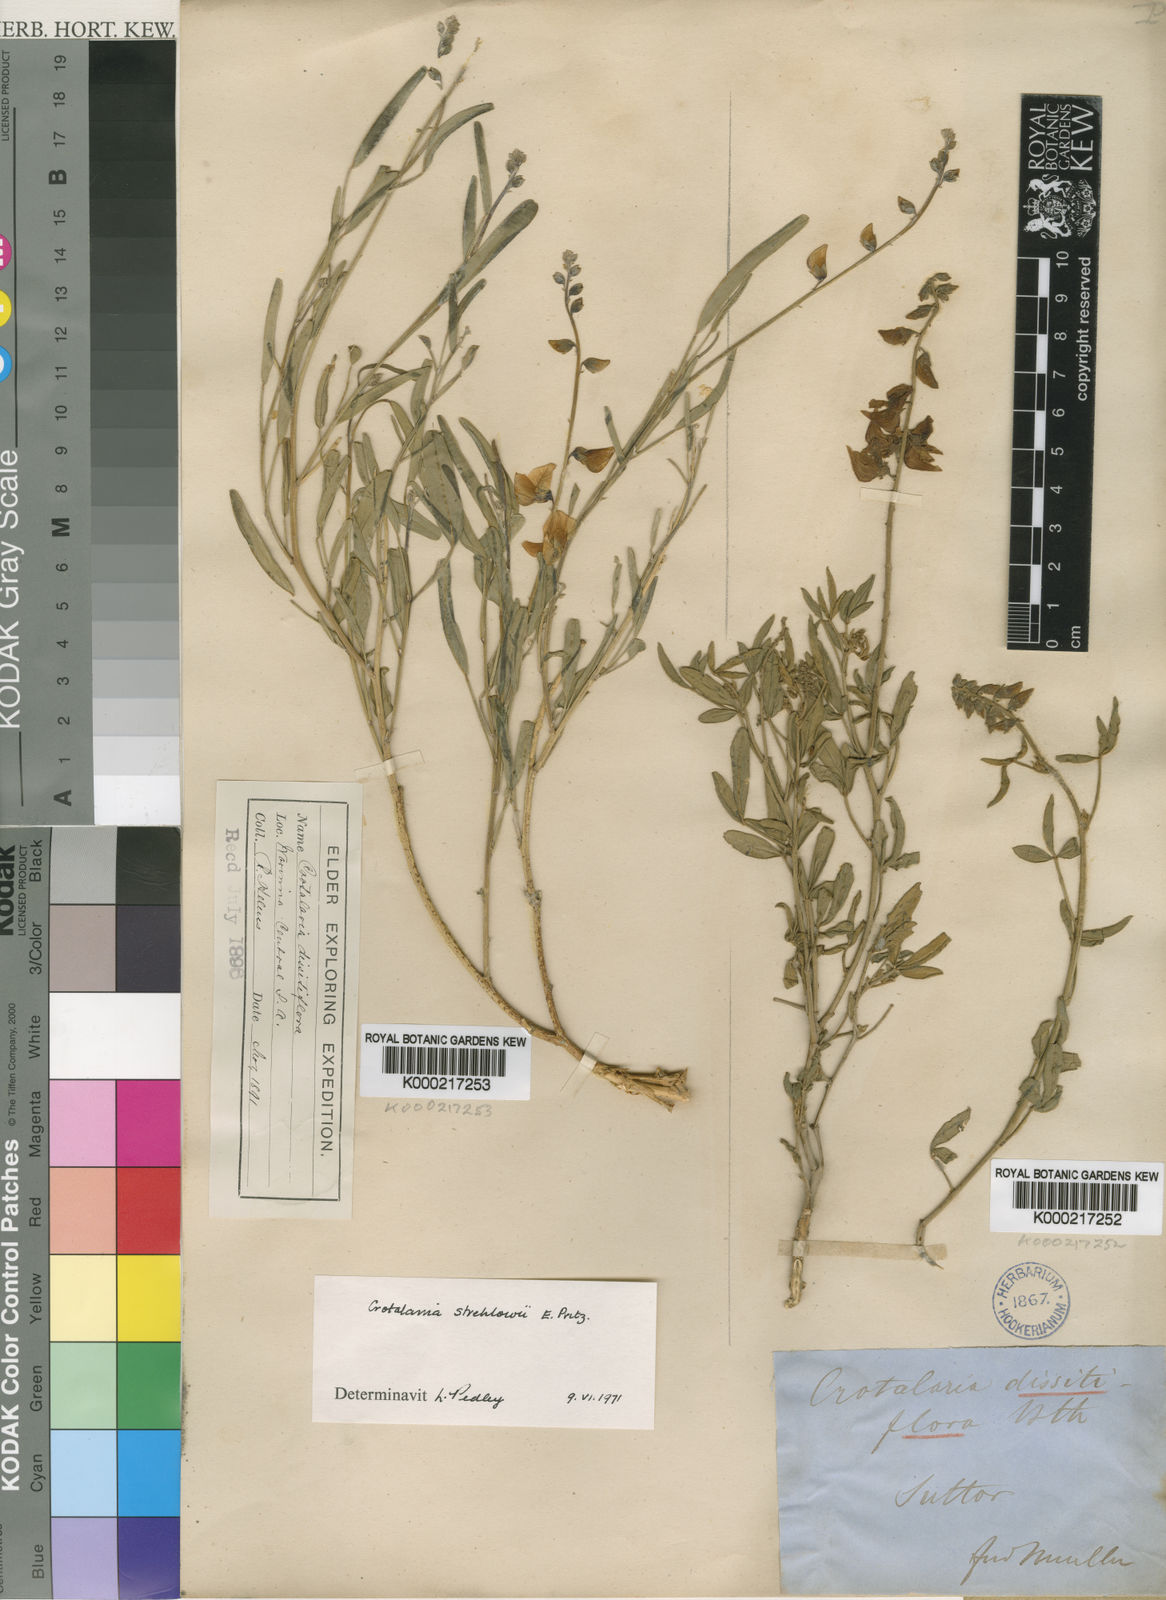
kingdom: Plantae
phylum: Tracheophyta
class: Magnoliopsida
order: Fabales
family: Fabaceae
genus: Crotalaria
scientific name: Crotalaria dissitiflora
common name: Grey rattlepod
